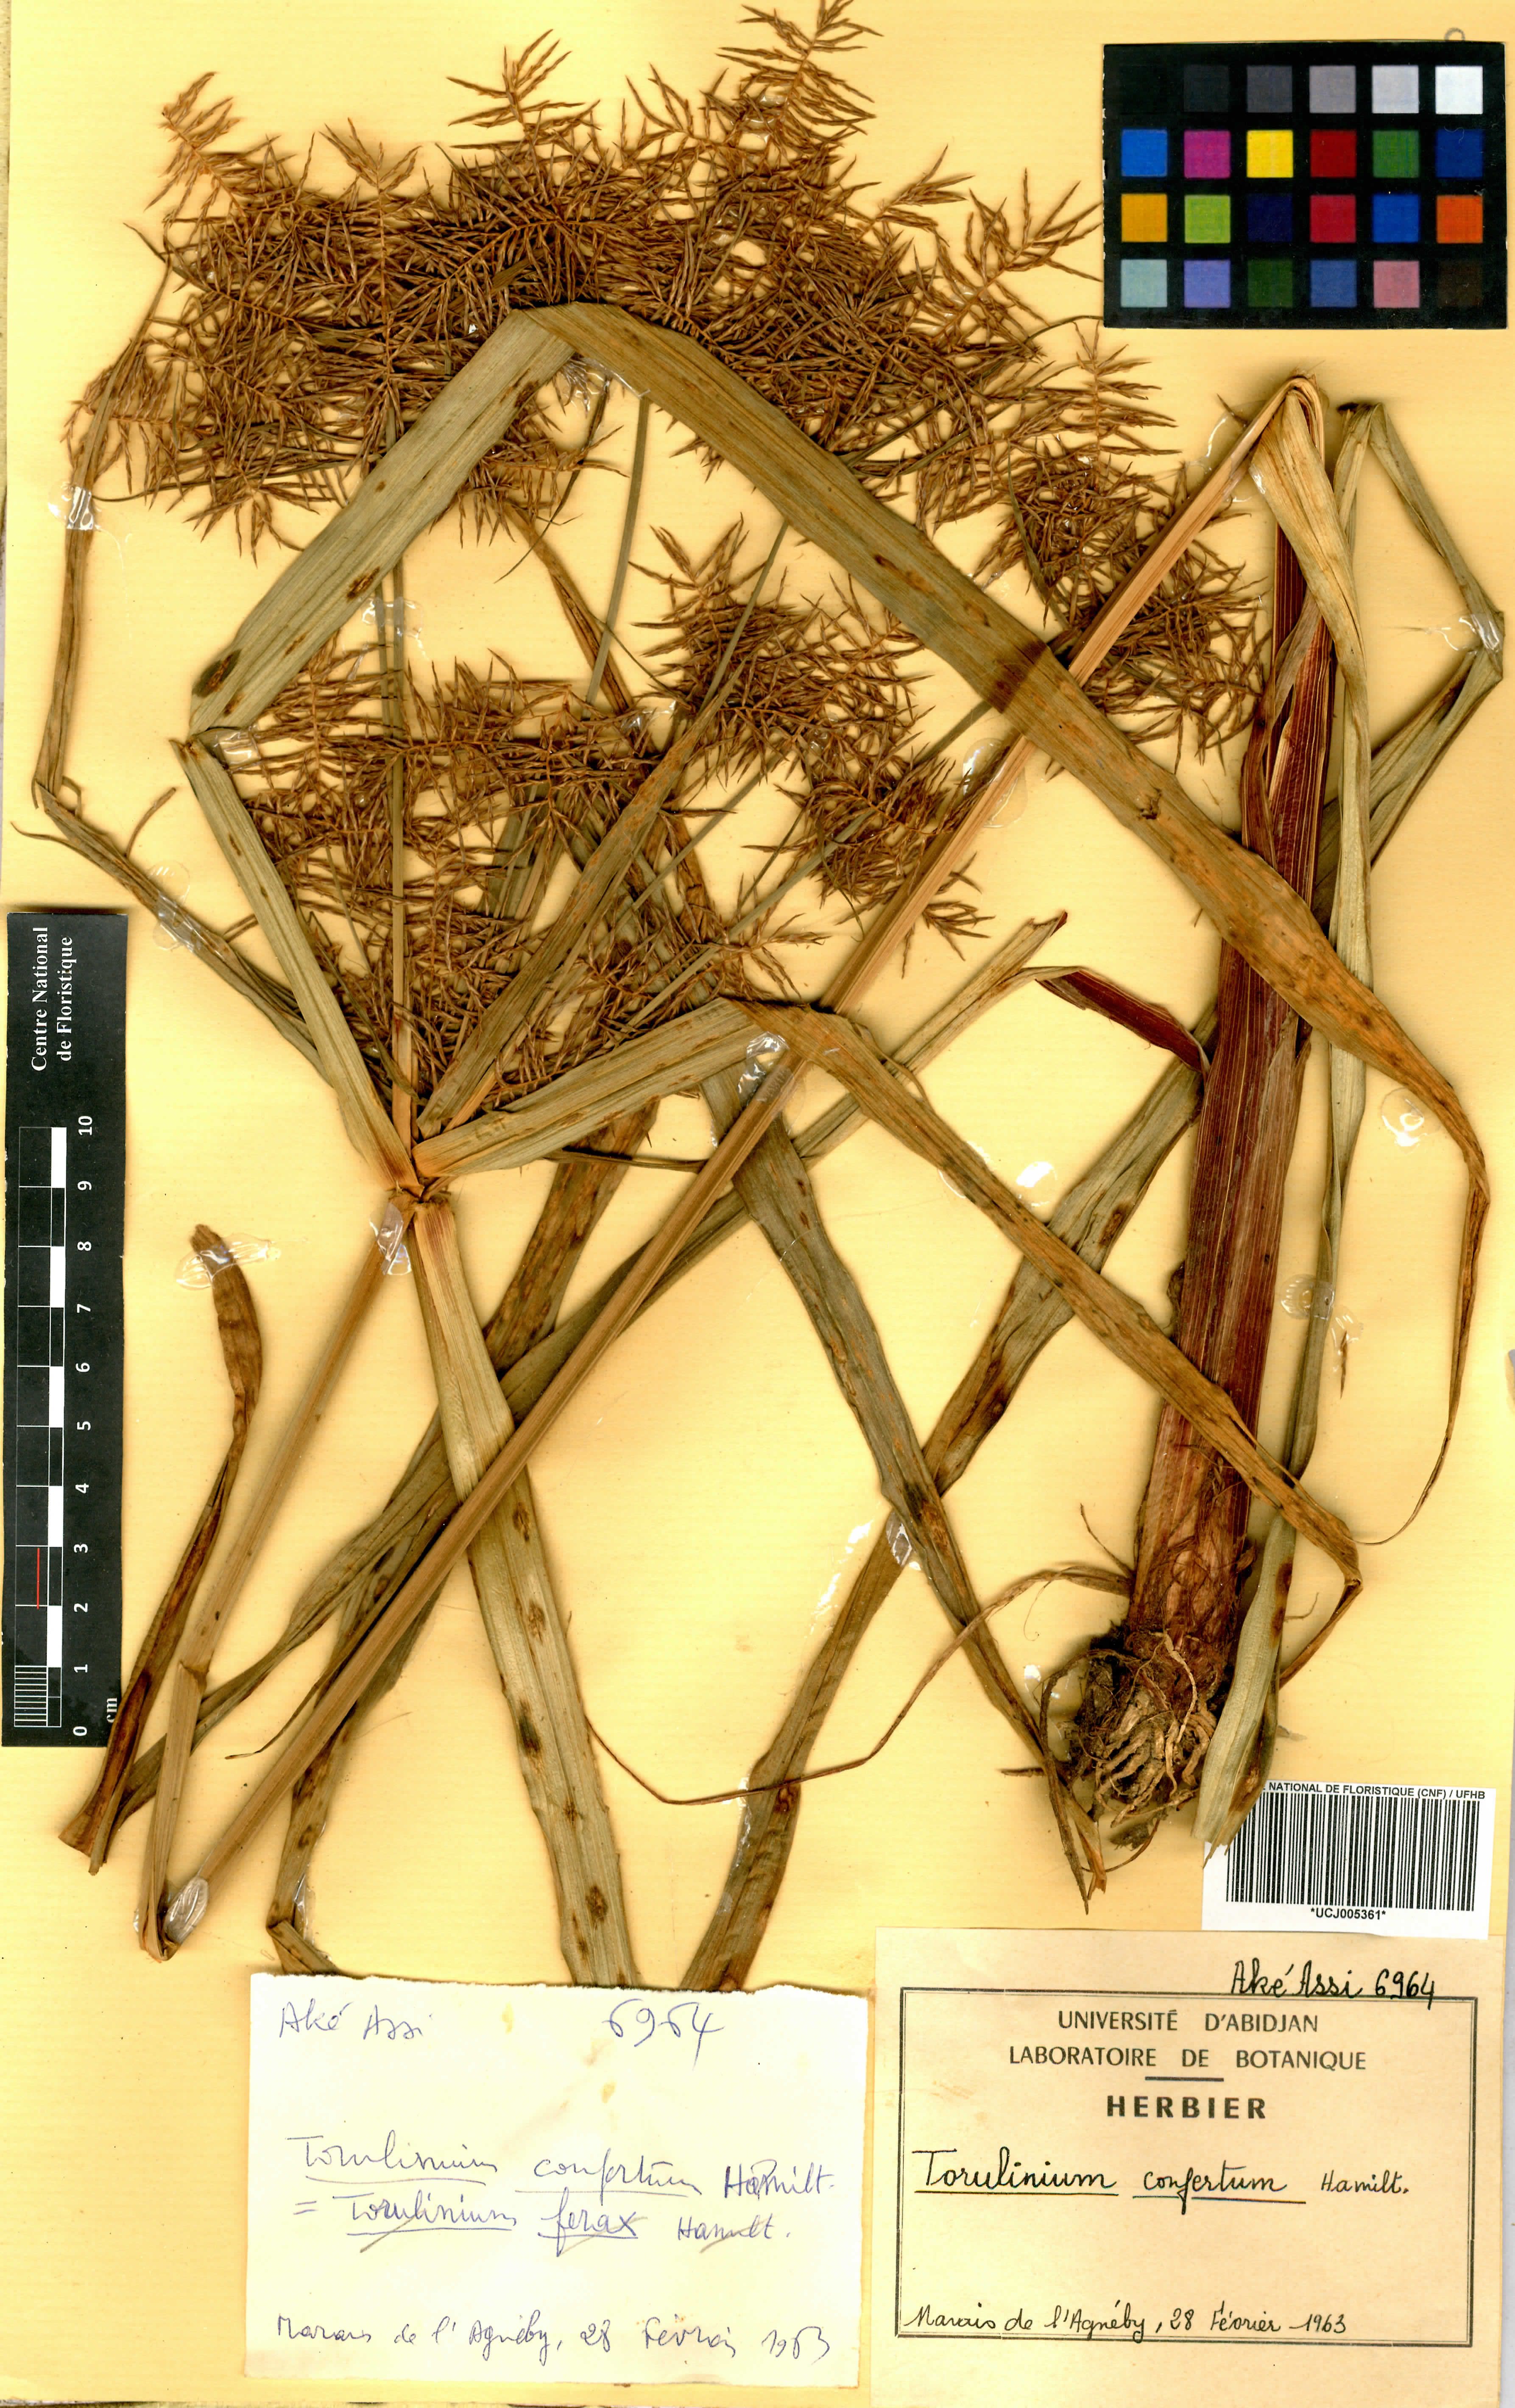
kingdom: Plantae
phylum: Tracheophyta
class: Liliopsida
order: Poales
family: Cyperaceae
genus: Cyperus
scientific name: Cyperus odoratus
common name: Fragrant flatsedge
